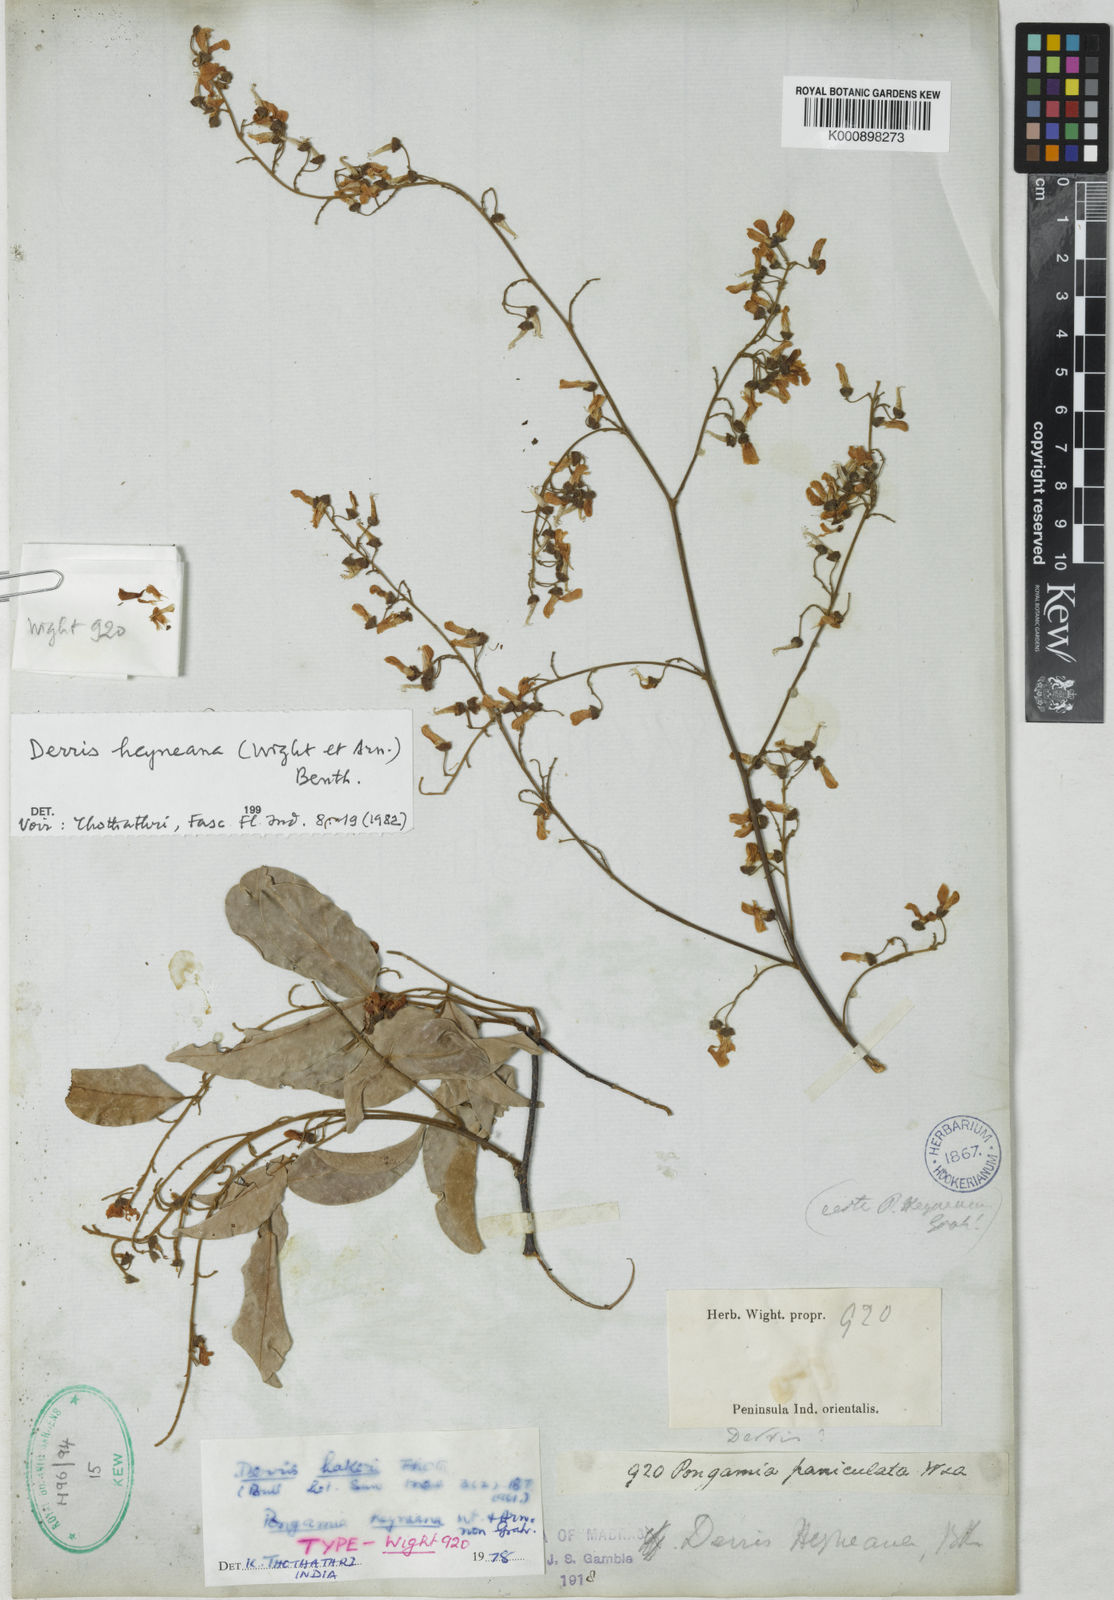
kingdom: Plantae
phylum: Tracheophyta
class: Magnoliopsida
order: Fabales
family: Fabaceae
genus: Derris
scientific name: Derris heyneana
